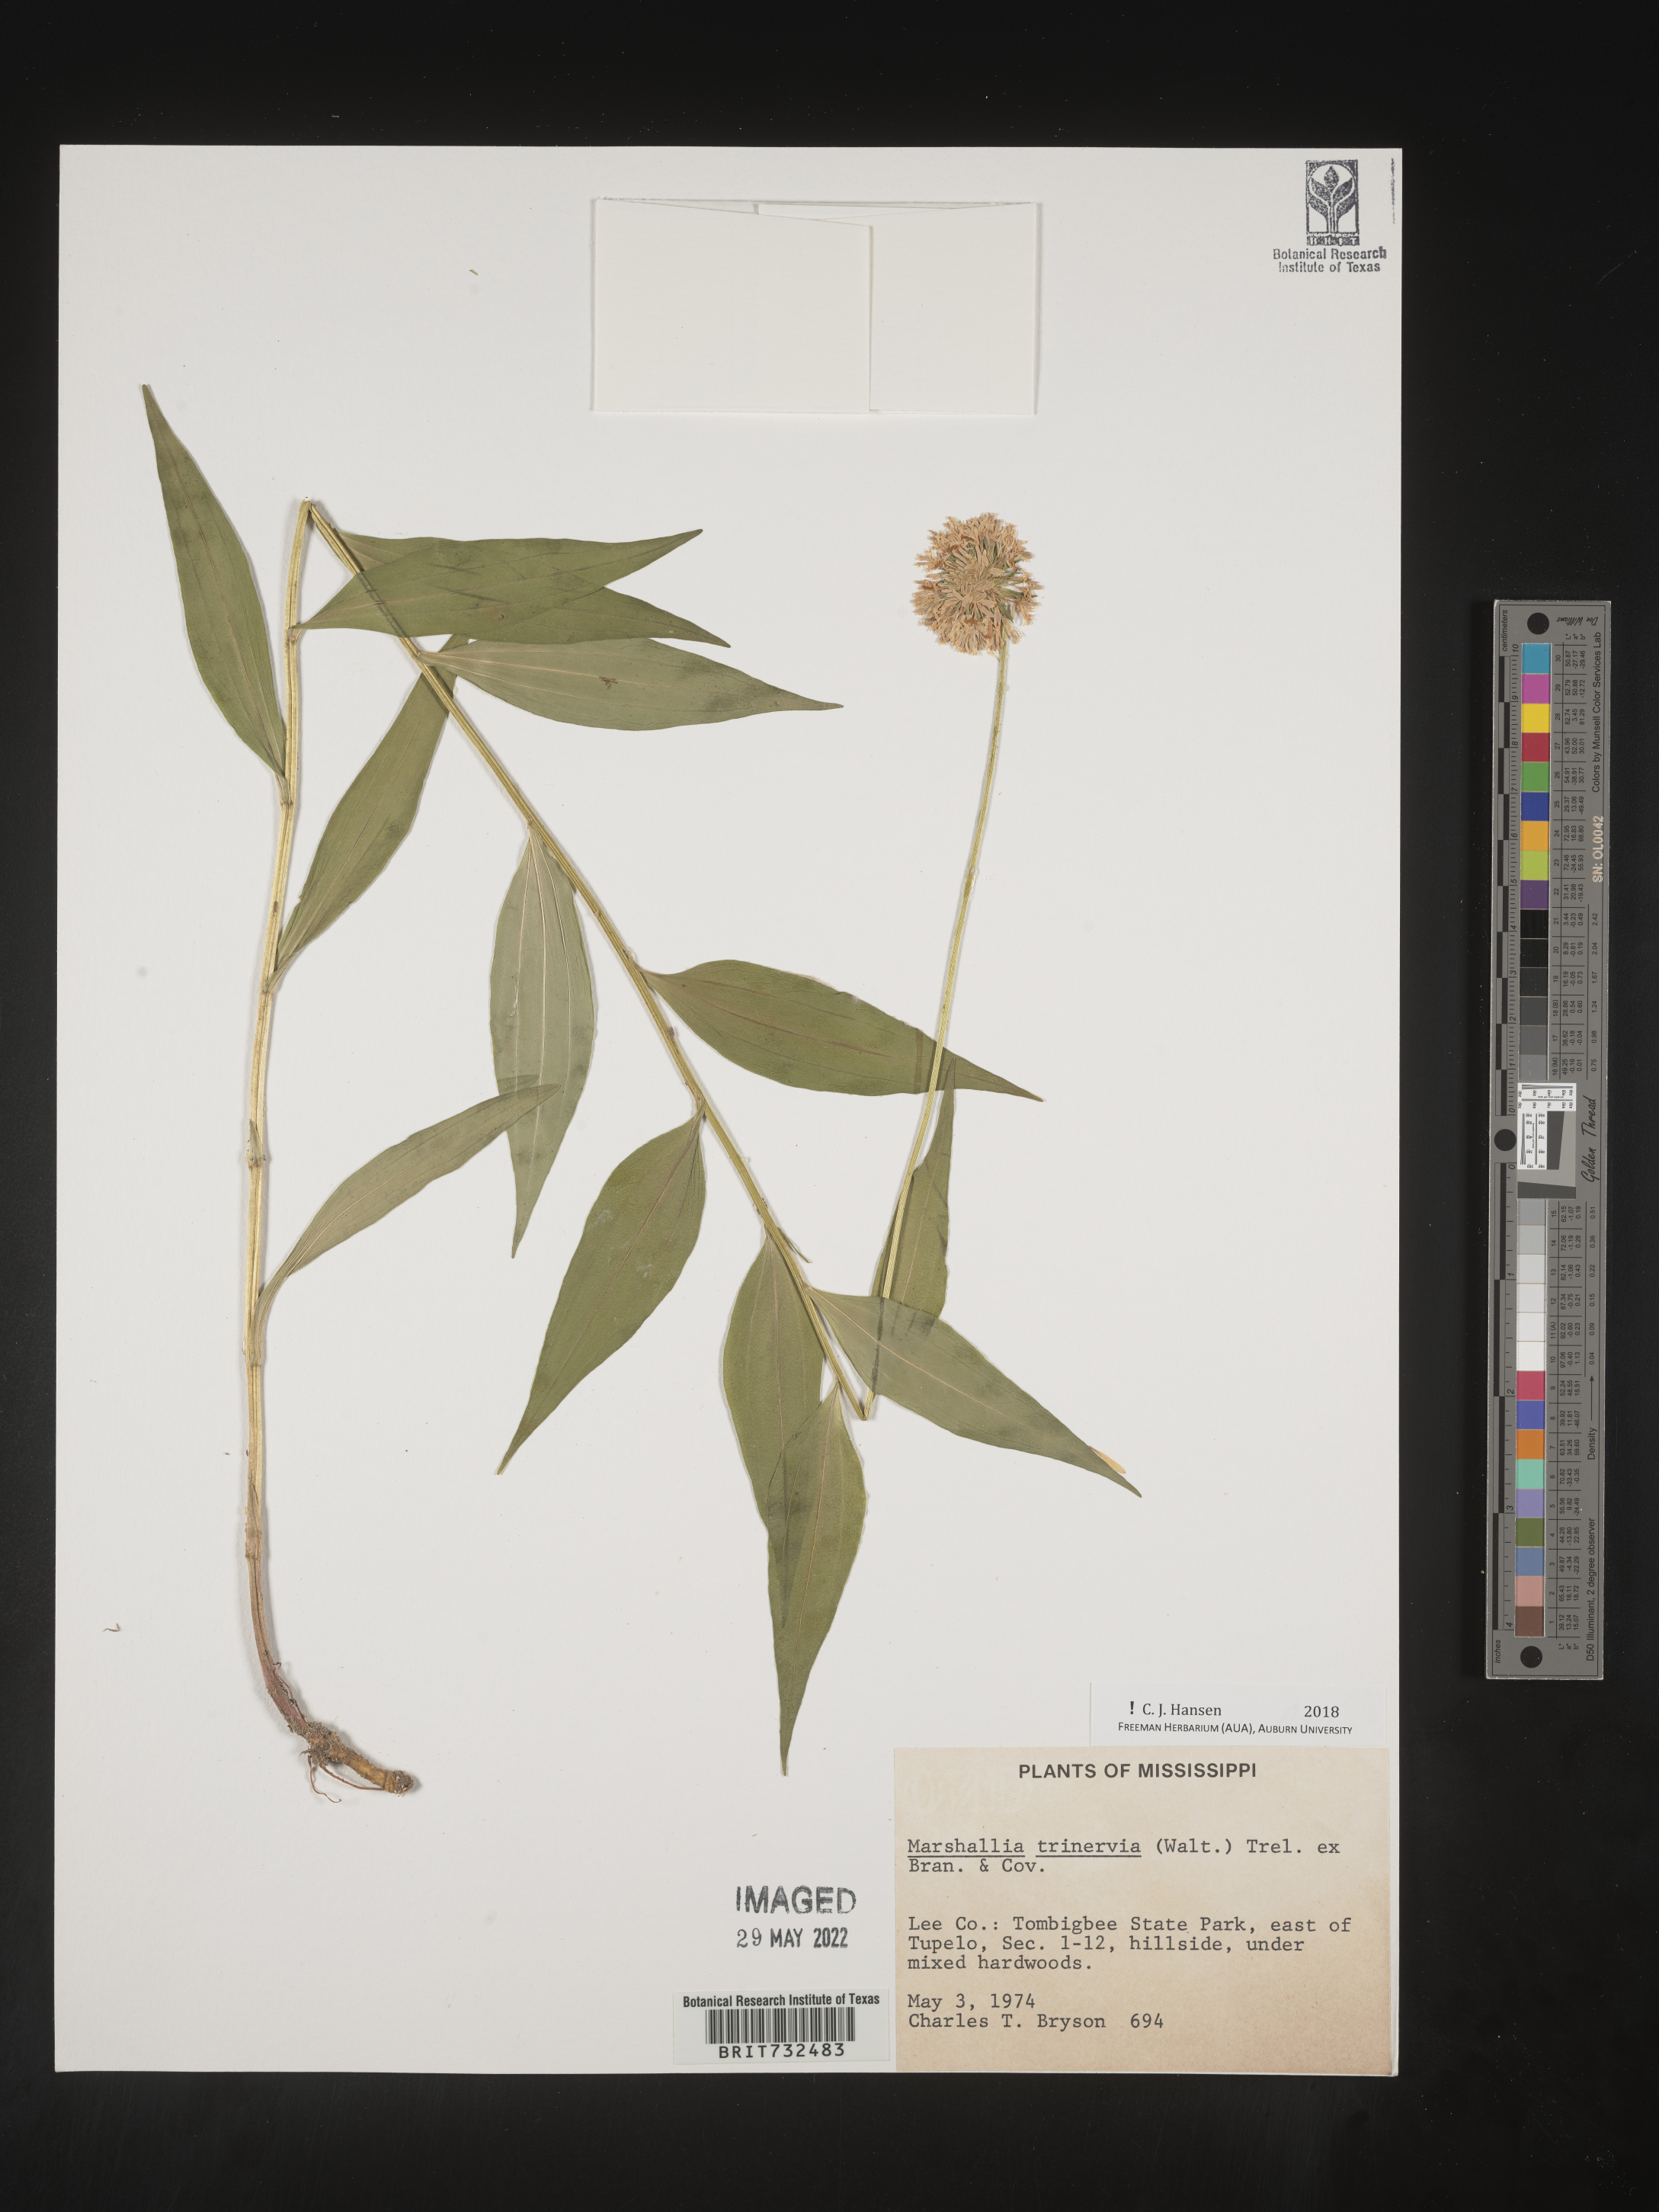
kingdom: Plantae
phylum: Tracheophyta
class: Magnoliopsida
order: Asterales
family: Asteraceae
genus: Marshallia
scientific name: Marshallia trinervia
